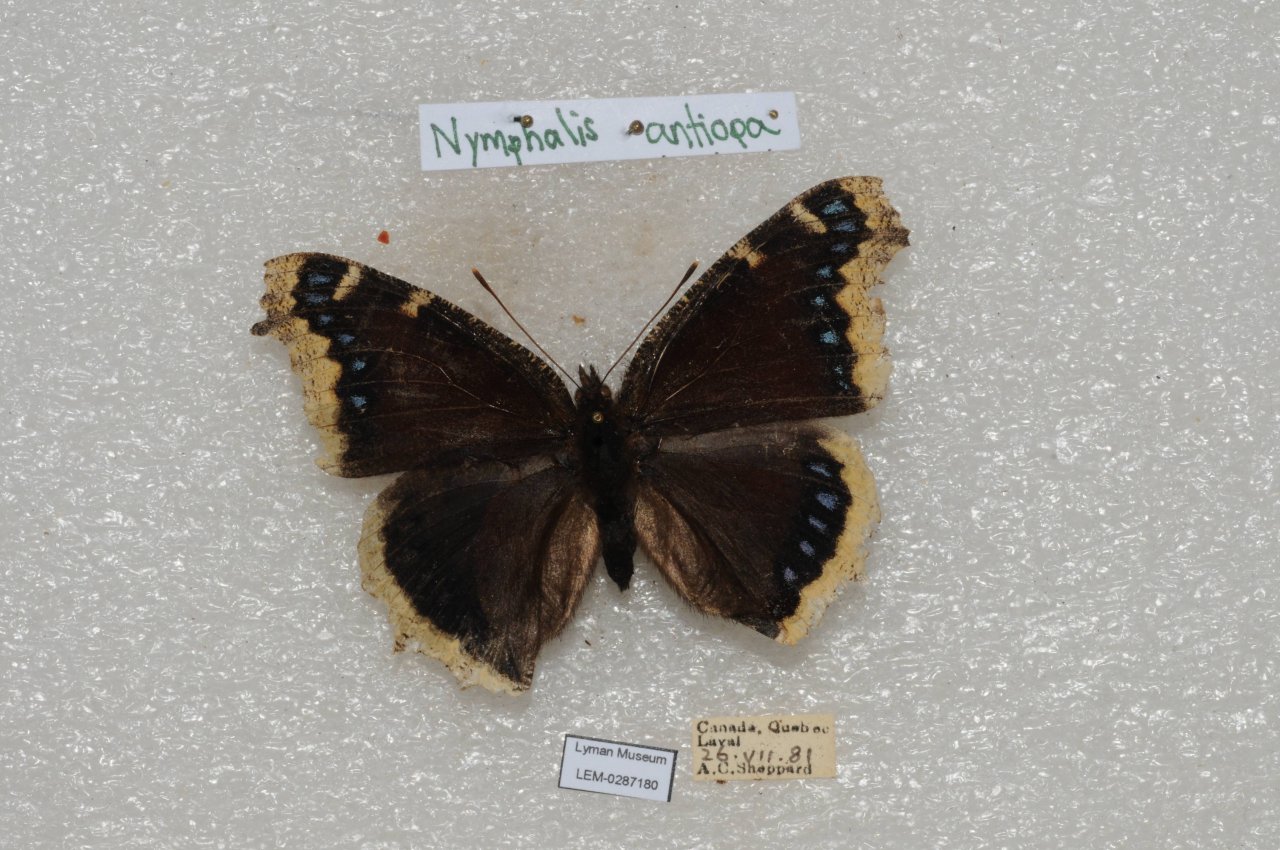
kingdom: Animalia
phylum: Arthropoda
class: Insecta
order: Lepidoptera
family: Nymphalidae
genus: Nymphalis
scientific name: Nymphalis antiopa
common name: Mourning Cloak
